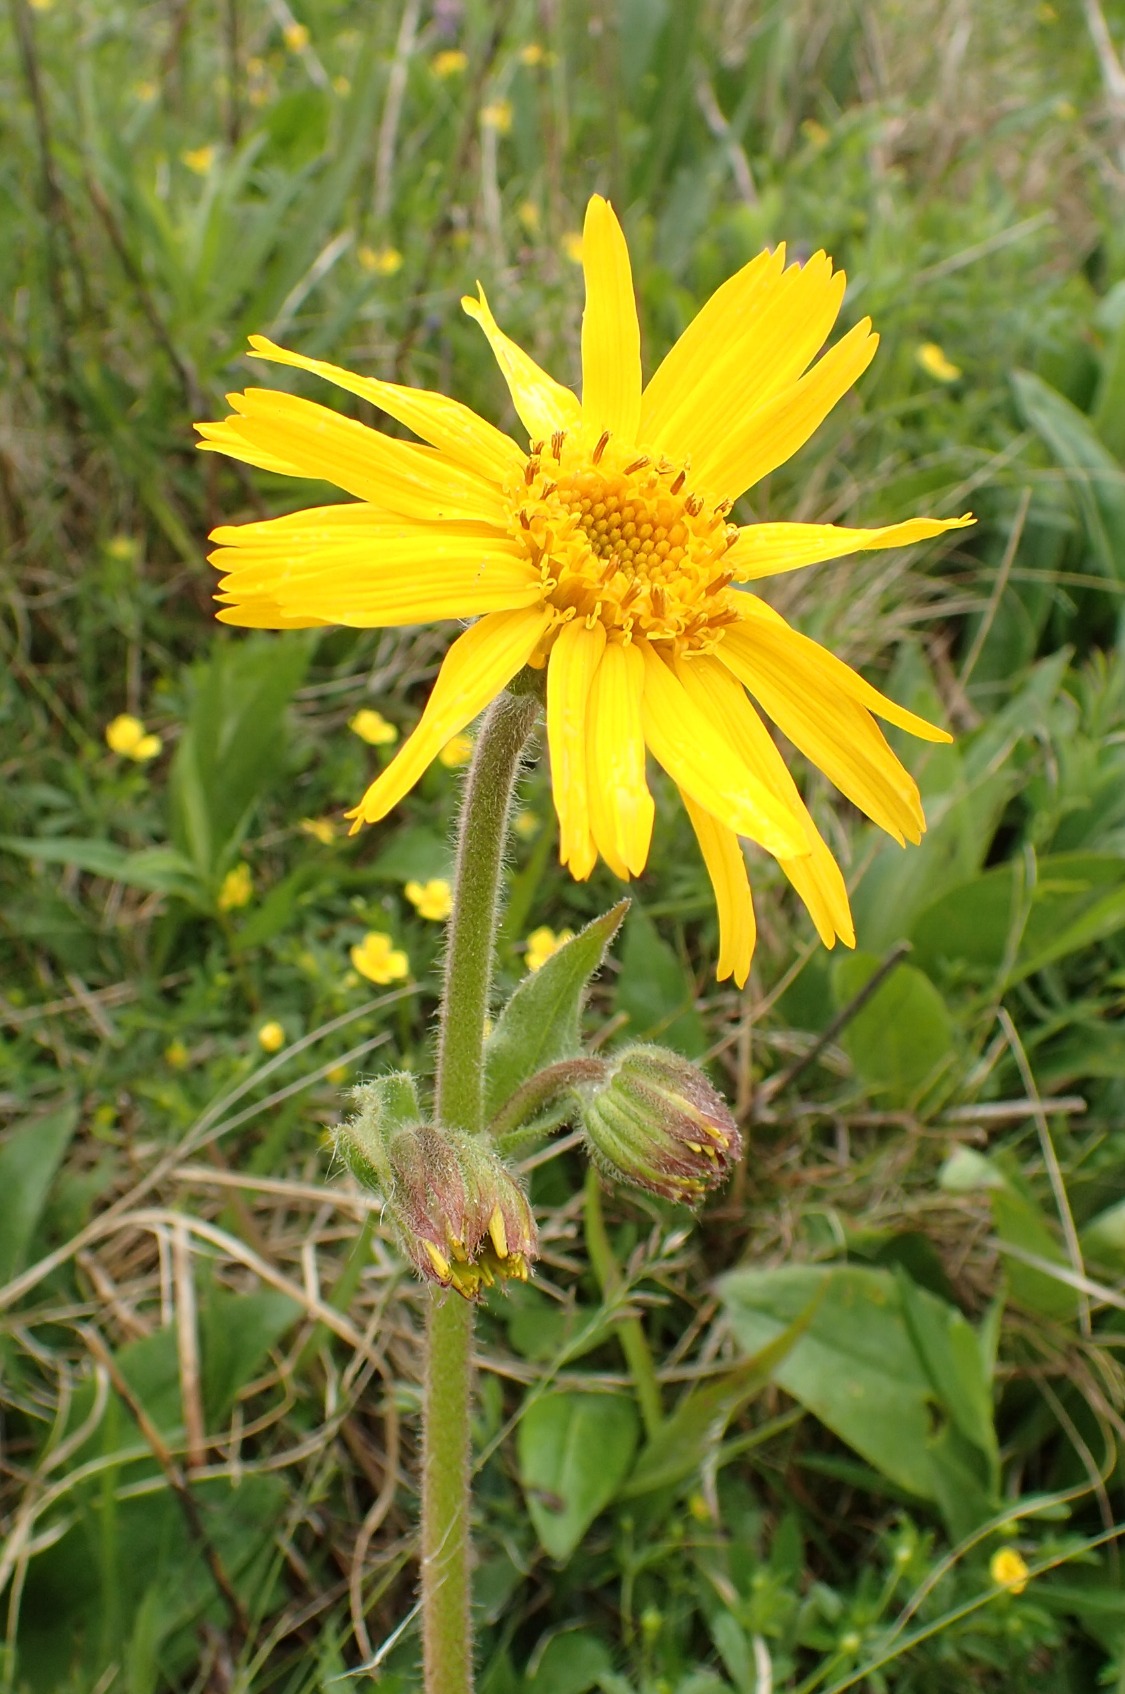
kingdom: Plantae
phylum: Tracheophyta
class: Magnoliopsida
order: Asterales
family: Asteraceae
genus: Arnica
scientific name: Arnica montana
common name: Guldblomme
